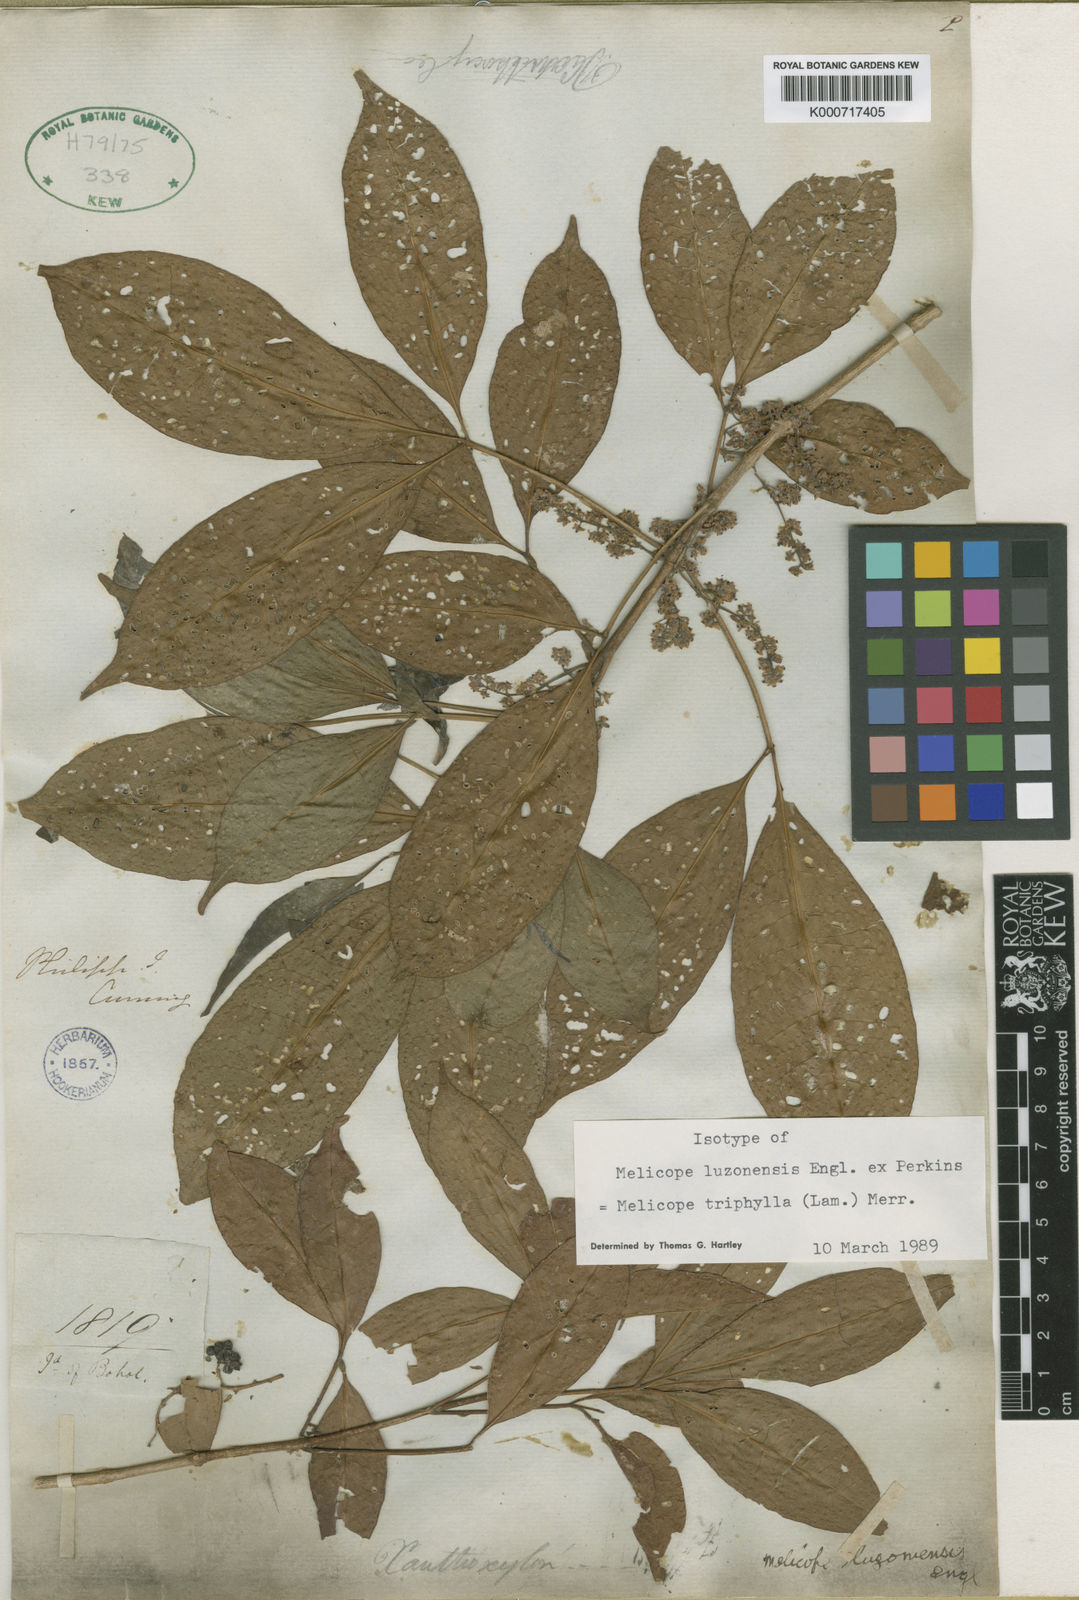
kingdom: Plantae
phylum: Tracheophyta
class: Magnoliopsida
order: Sapindales
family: Rutaceae
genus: Melicope
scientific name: Melicope
